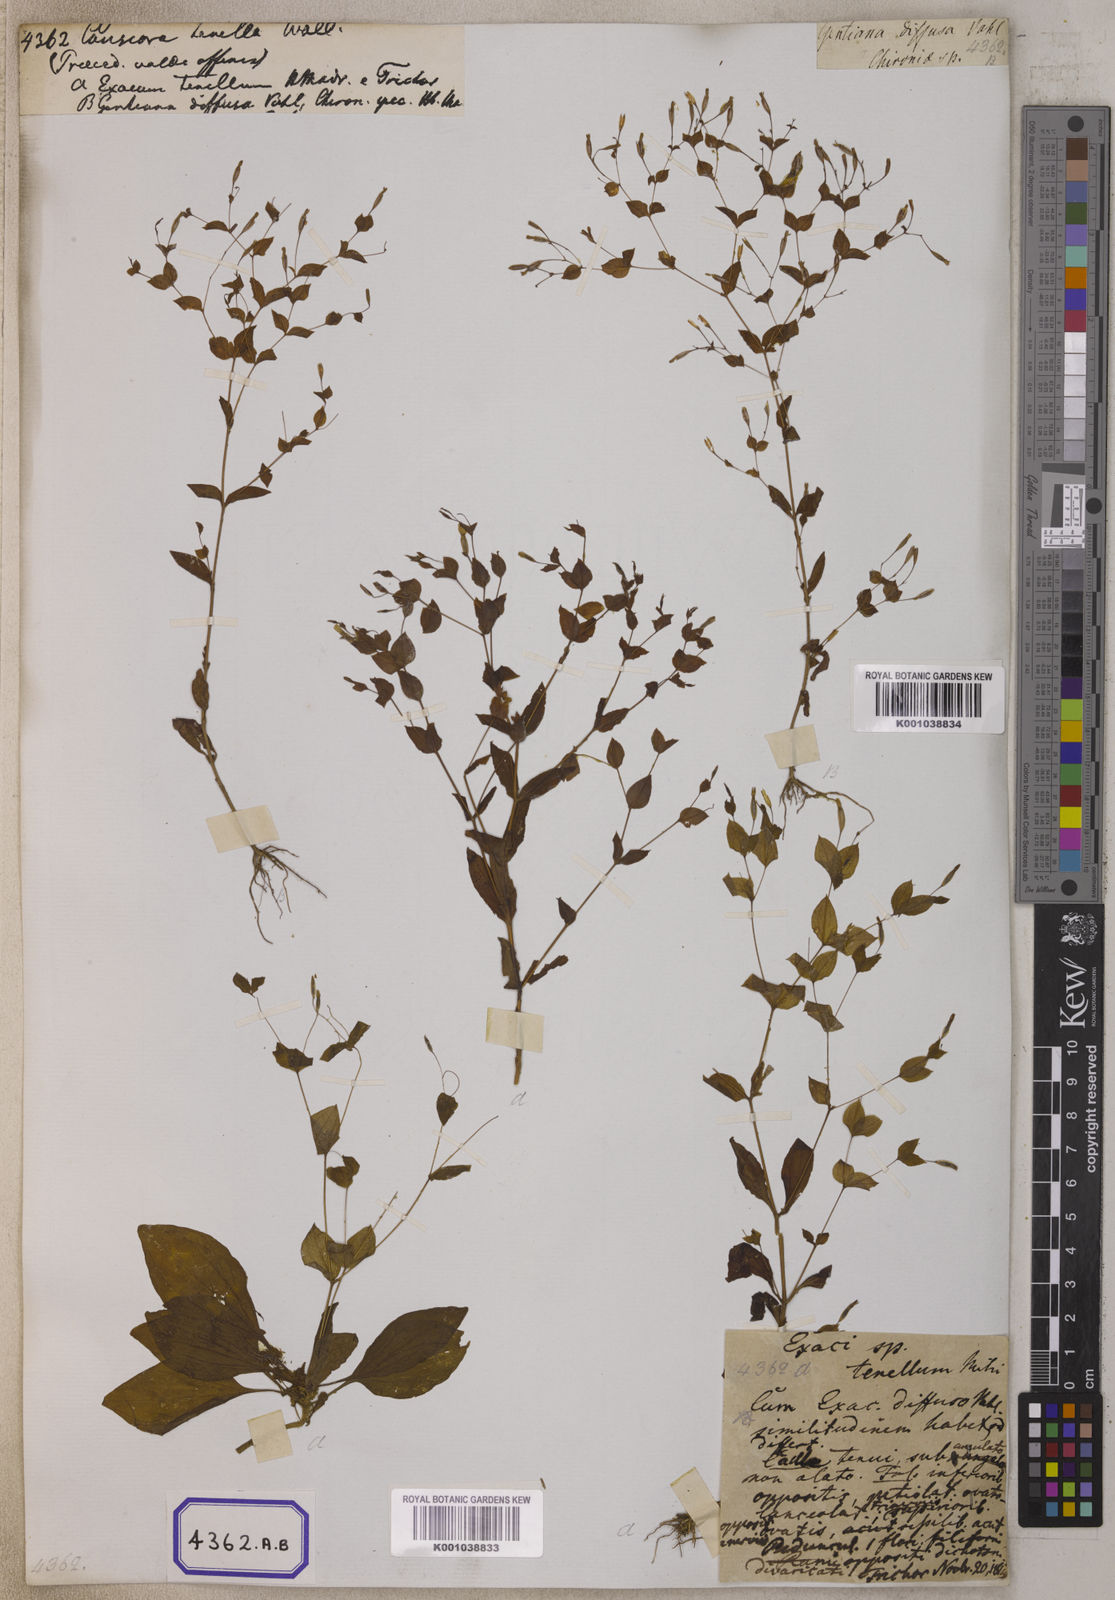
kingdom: Plantae
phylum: Tracheophyta
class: Magnoliopsida
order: Gentianales
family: Gentianaceae
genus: Canscora
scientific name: Canscora
